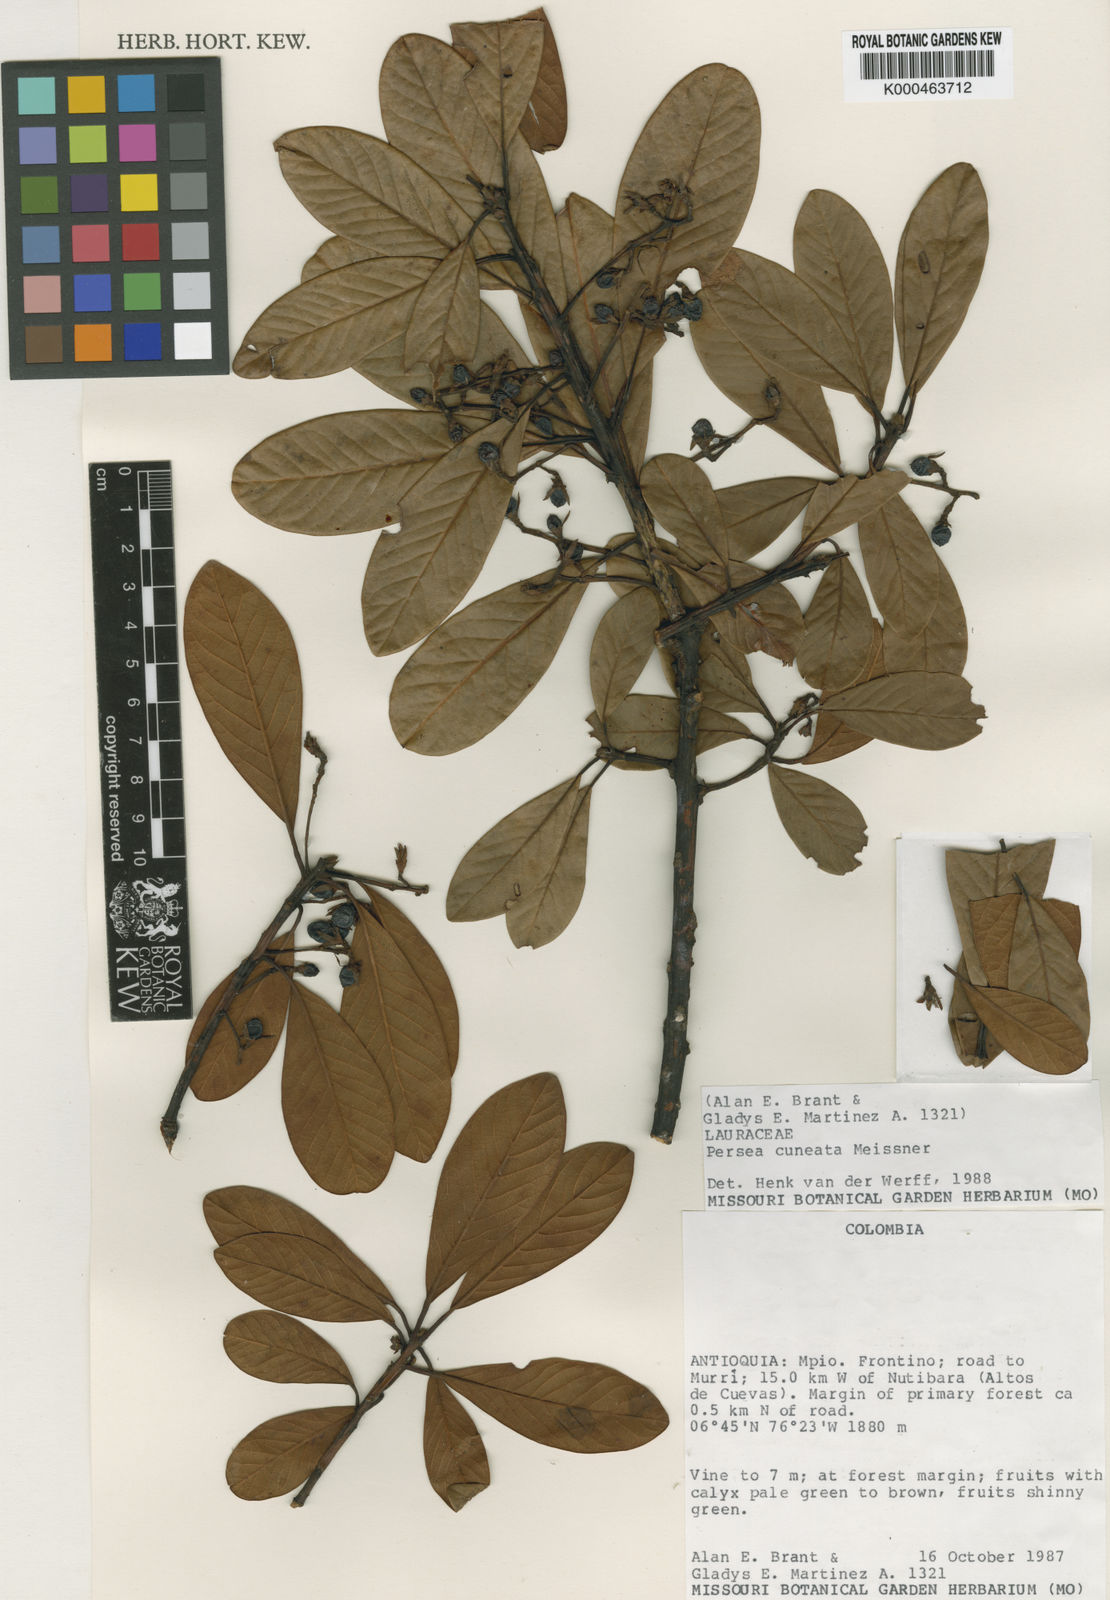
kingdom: Plantae
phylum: Tracheophyta
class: Magnoliopsida
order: Laurales
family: Lauraceae
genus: Persea
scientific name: Persea cuneata
